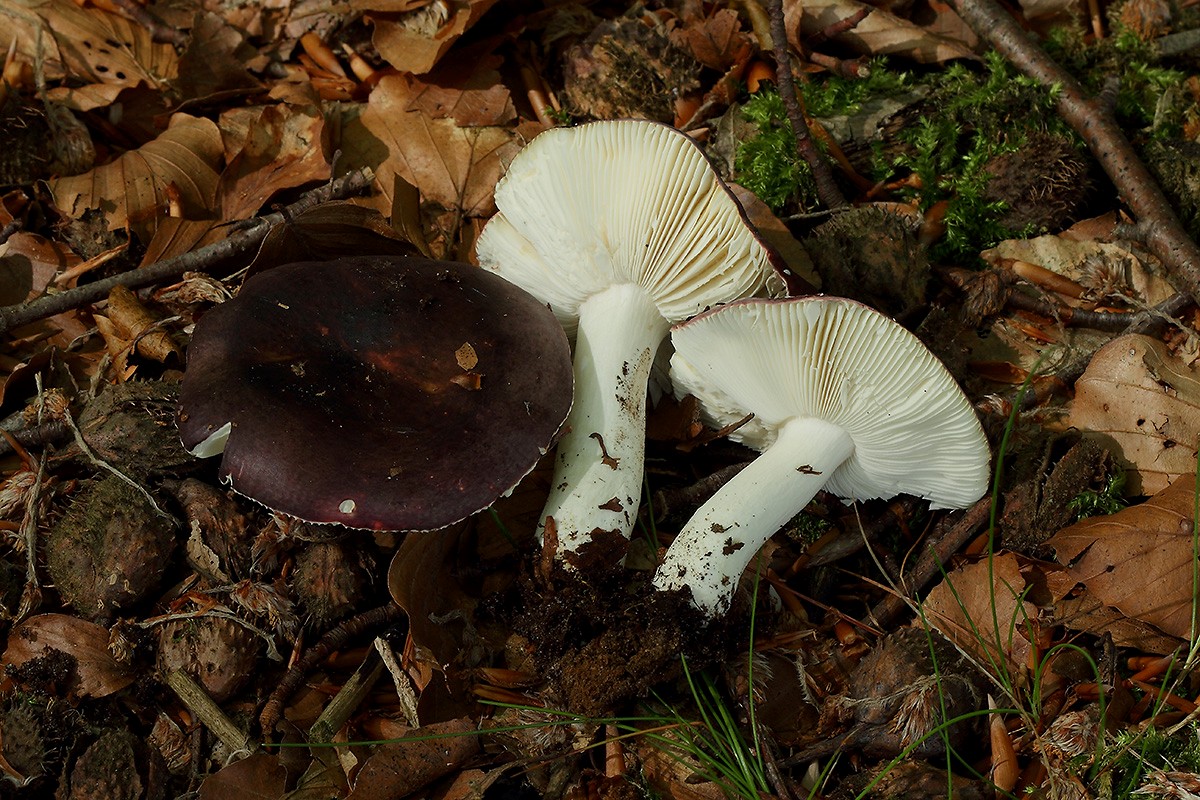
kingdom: Fungi
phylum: Basidiomycota
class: Agaricomycetes
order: Russulales
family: Russulaceae
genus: Russula
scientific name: Russula brunneoviolacea
